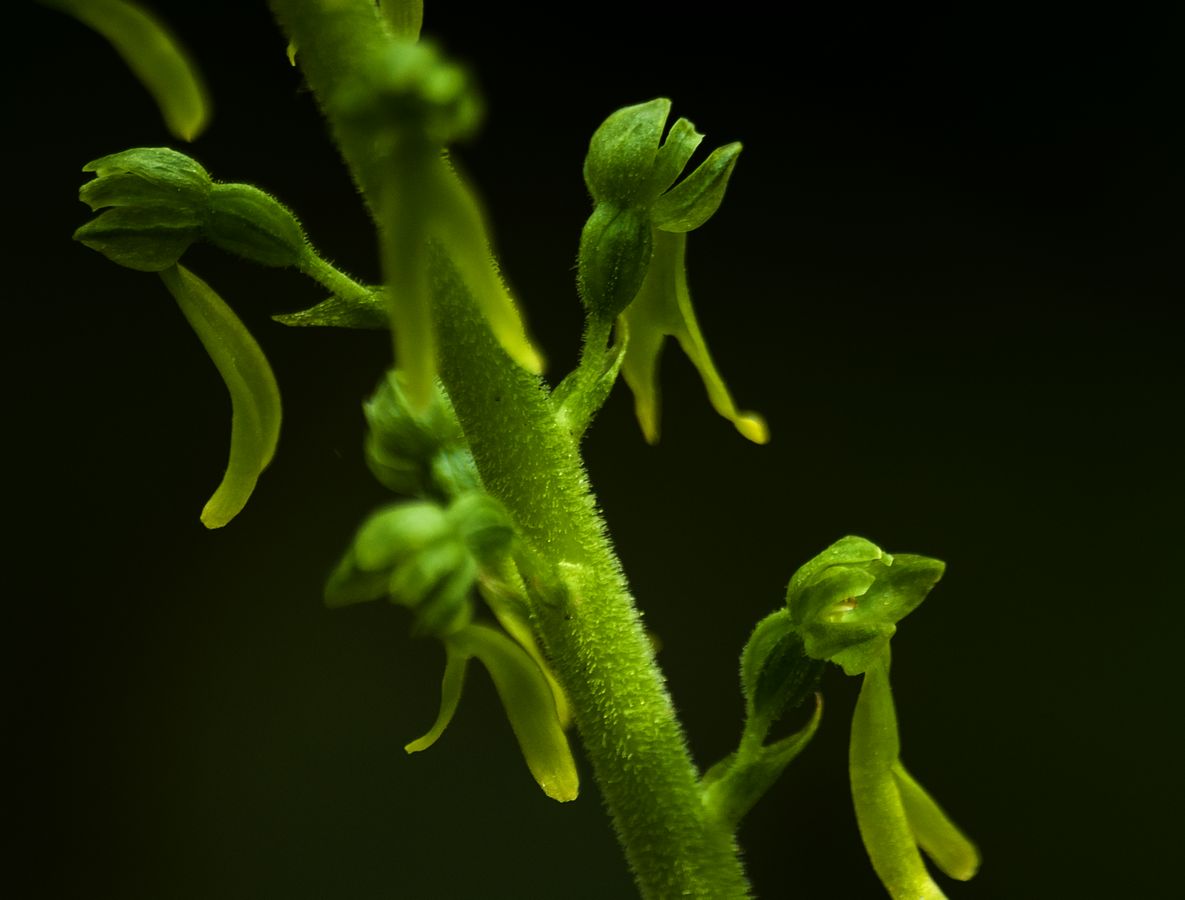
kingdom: Plantae
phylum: Tracheophyta
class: Liliopsida
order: Asparagales
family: Orchidaceae
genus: Neottia
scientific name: Neottia ovata
